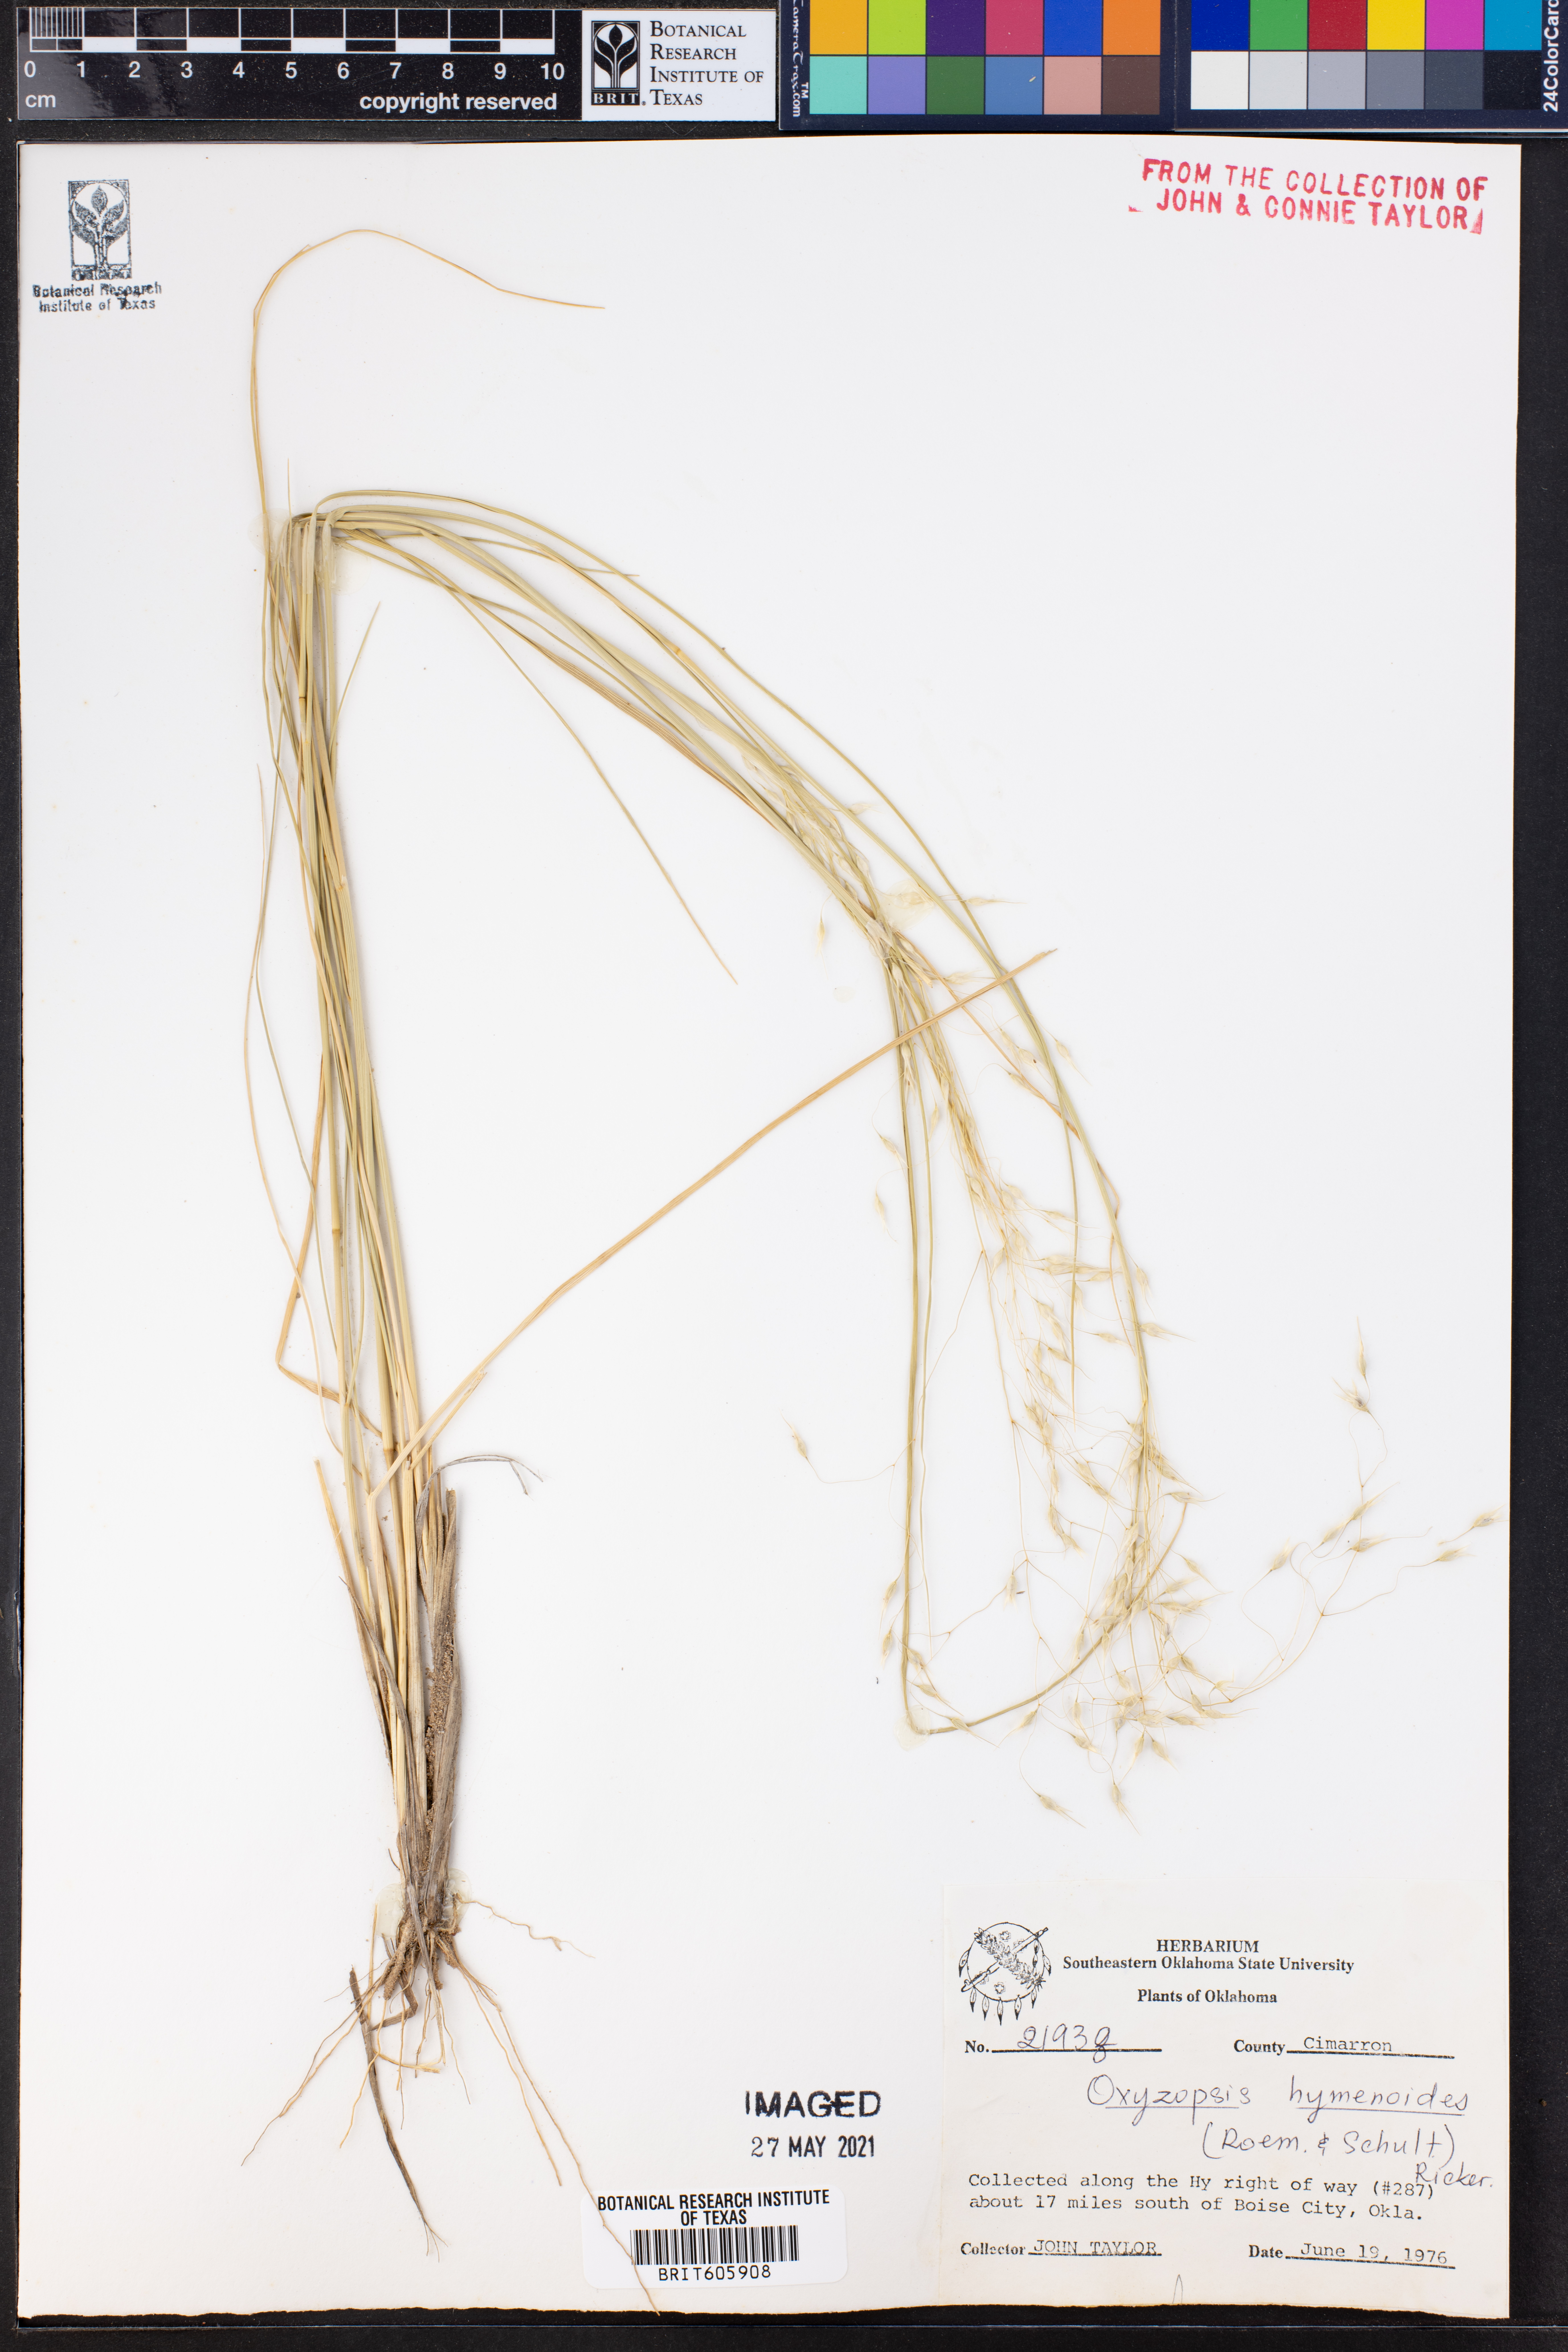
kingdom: Plantae
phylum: Tracheophyta
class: Liliopsida
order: Poales
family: Poaceae
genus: Eriocoma
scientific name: Eriocoma hymenoides
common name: Indian mountain ricegrass
